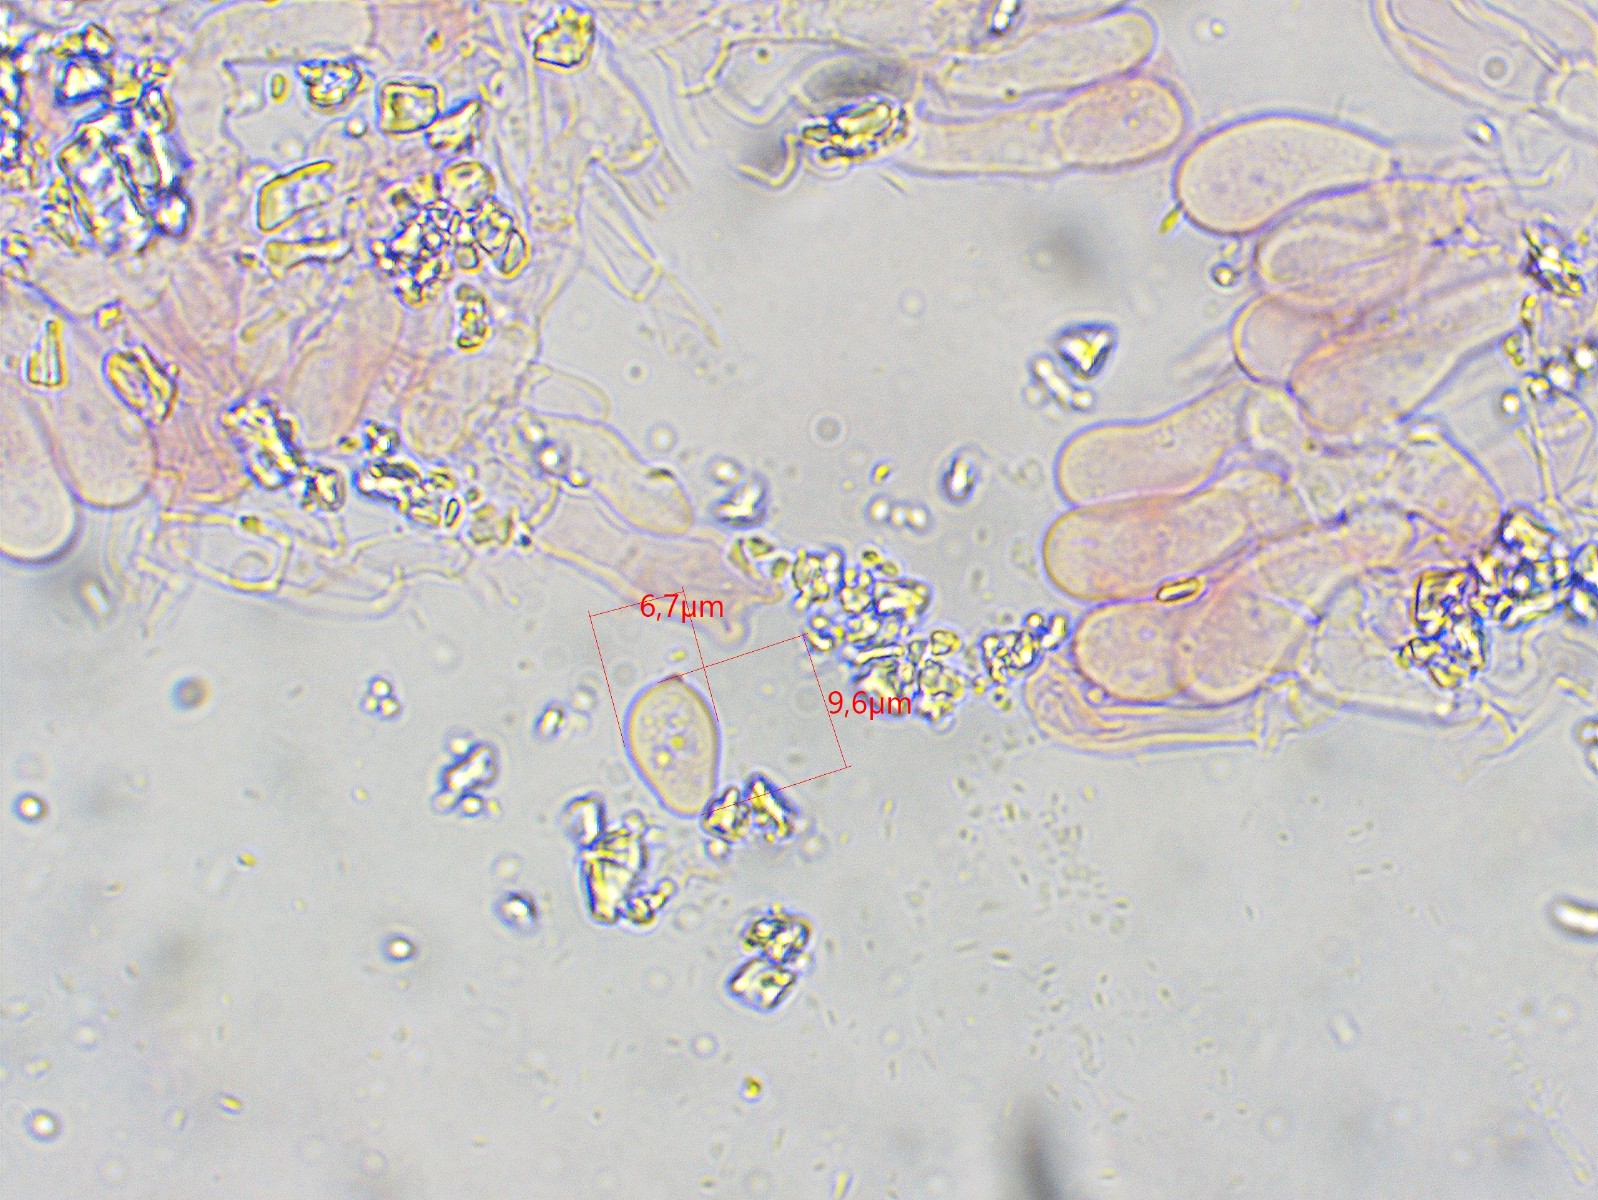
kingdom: Fungi
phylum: Basidiomycota
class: Agaricomycetes
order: Corticiales
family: Corticiaceae
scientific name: Corticiaceae
